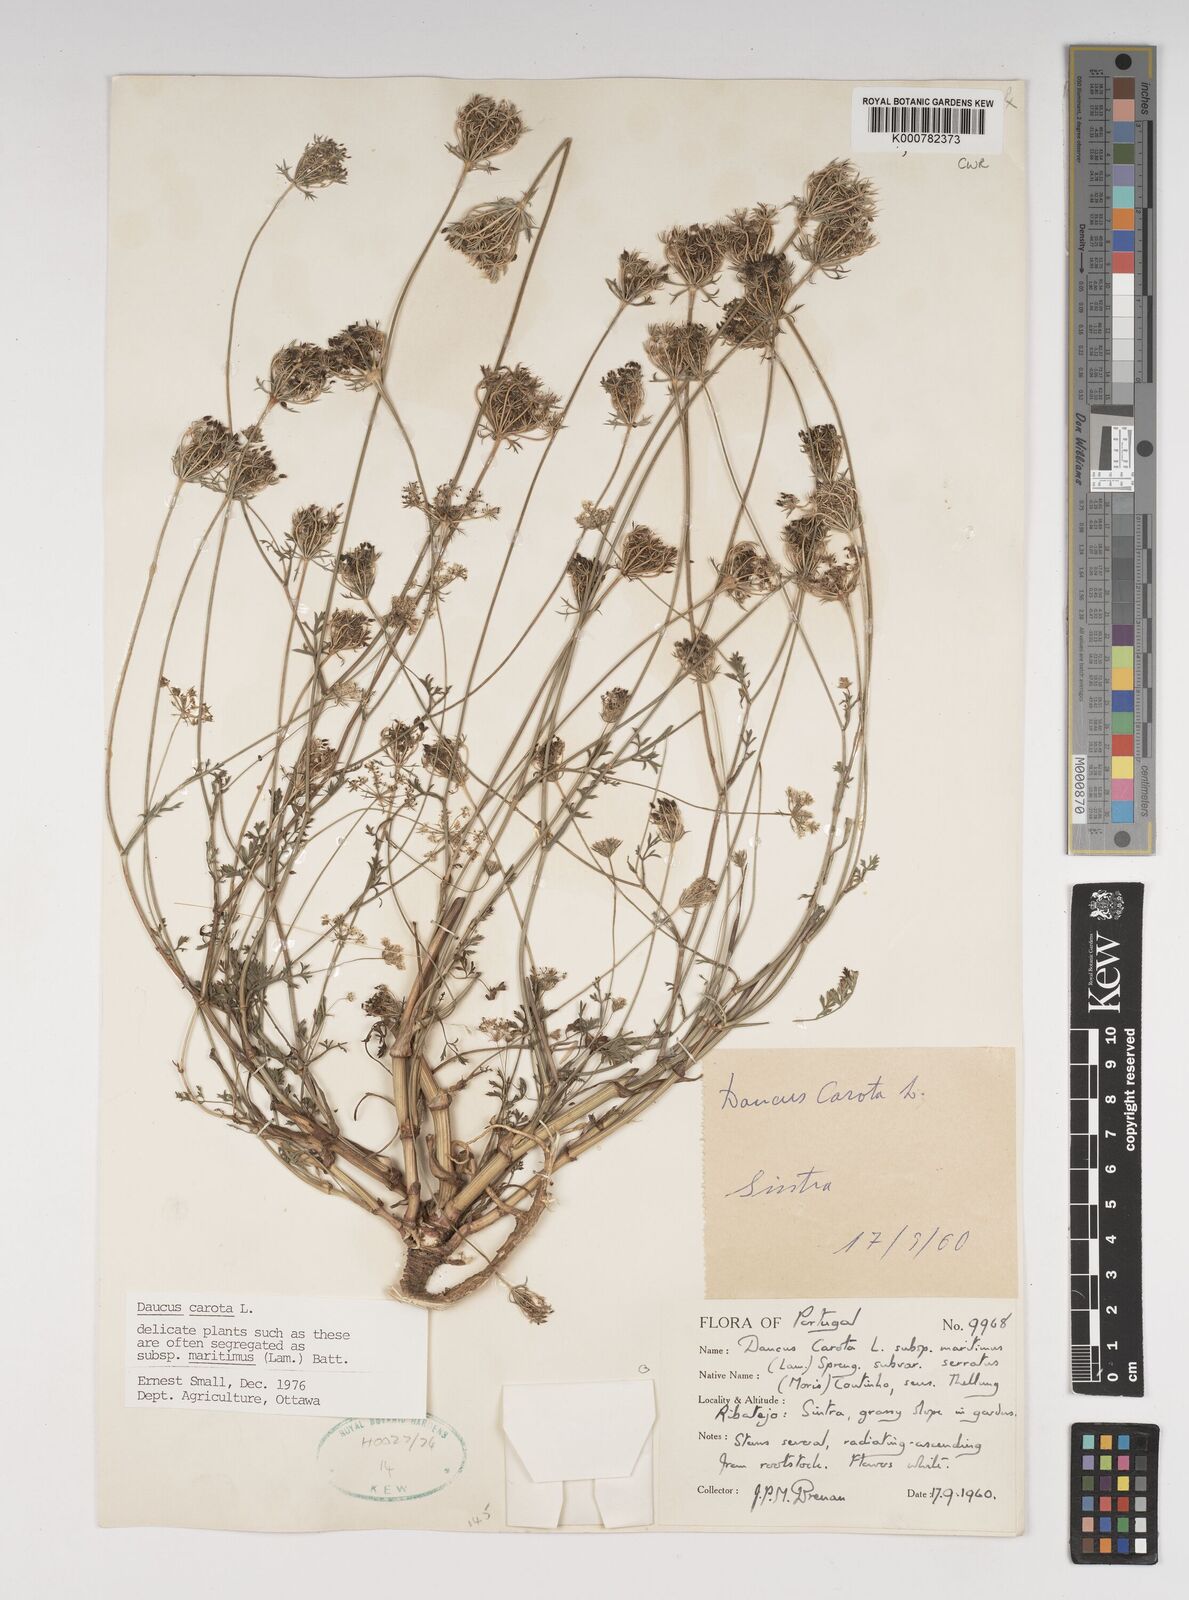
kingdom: Plantae
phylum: Tracheophyta
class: Magnoliopsida
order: Apiales
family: Apiaceae
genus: Daucus
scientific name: Daucus carota
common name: Wild carrot
